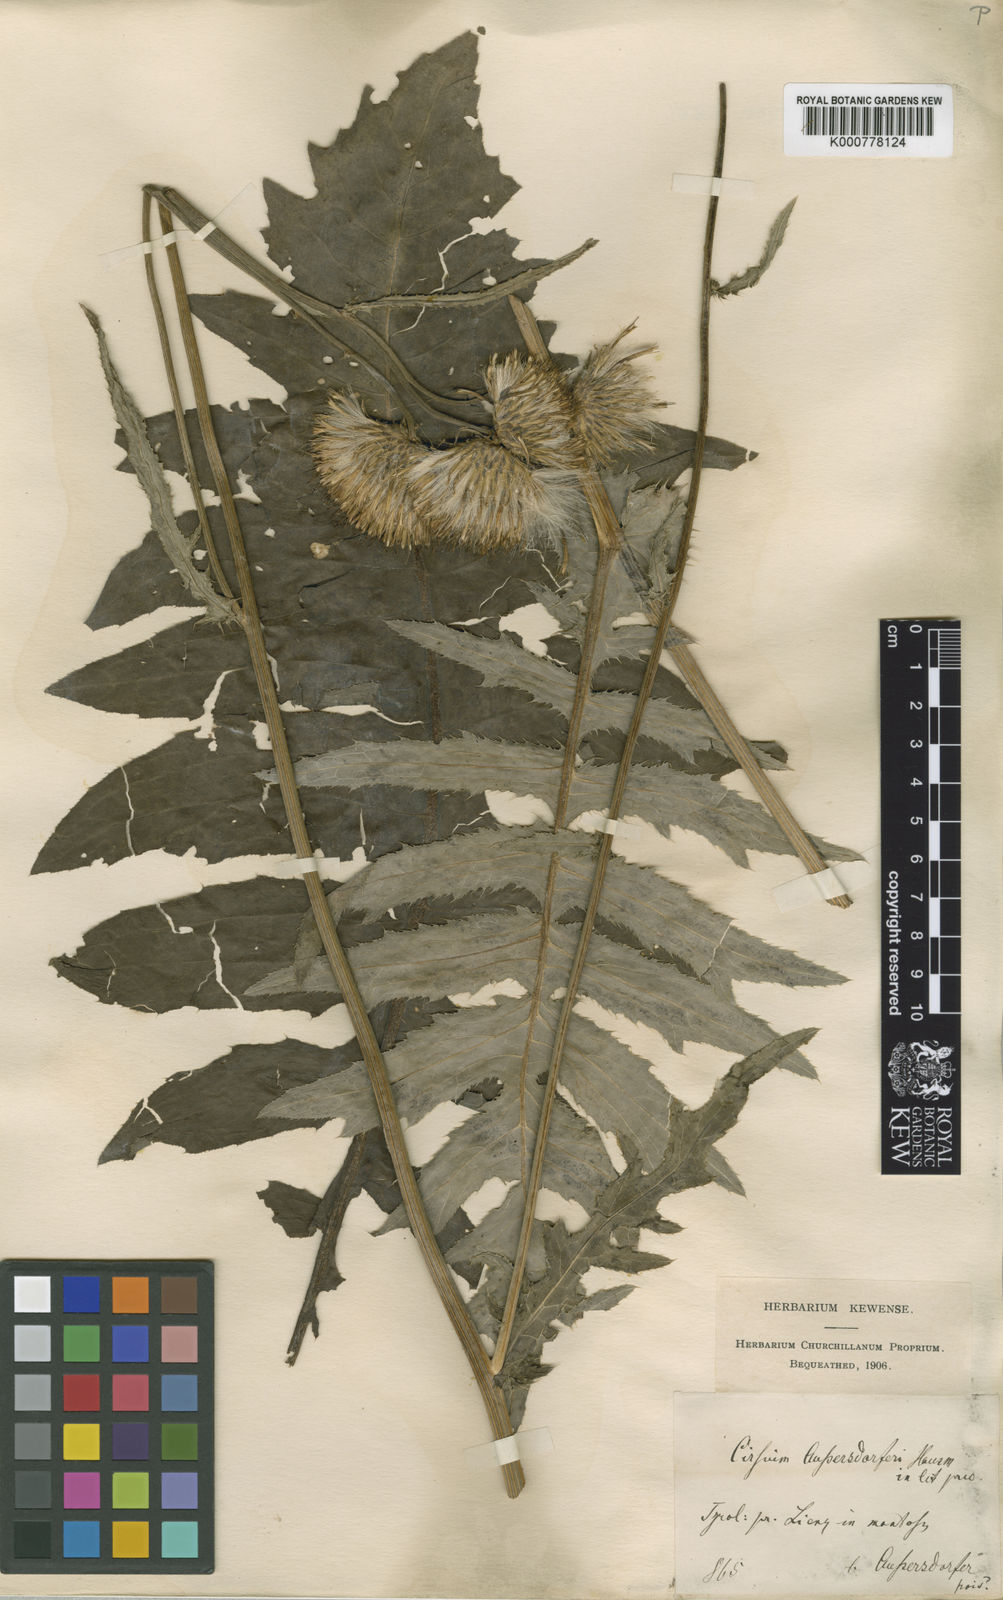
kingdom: Plantae
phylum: Tracheophyta
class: Magnoliopsida
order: Asterales
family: Asteraceae
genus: Cirsium
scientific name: Cirsium palustre
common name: Marsh thistle
